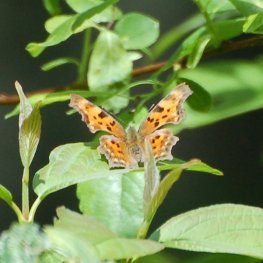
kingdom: Animalia
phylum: Arthropoda
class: Insecta
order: Lepidoptera
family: Nymphalidae
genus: Polygonia
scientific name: Polygonia faunus
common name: Green Comma
